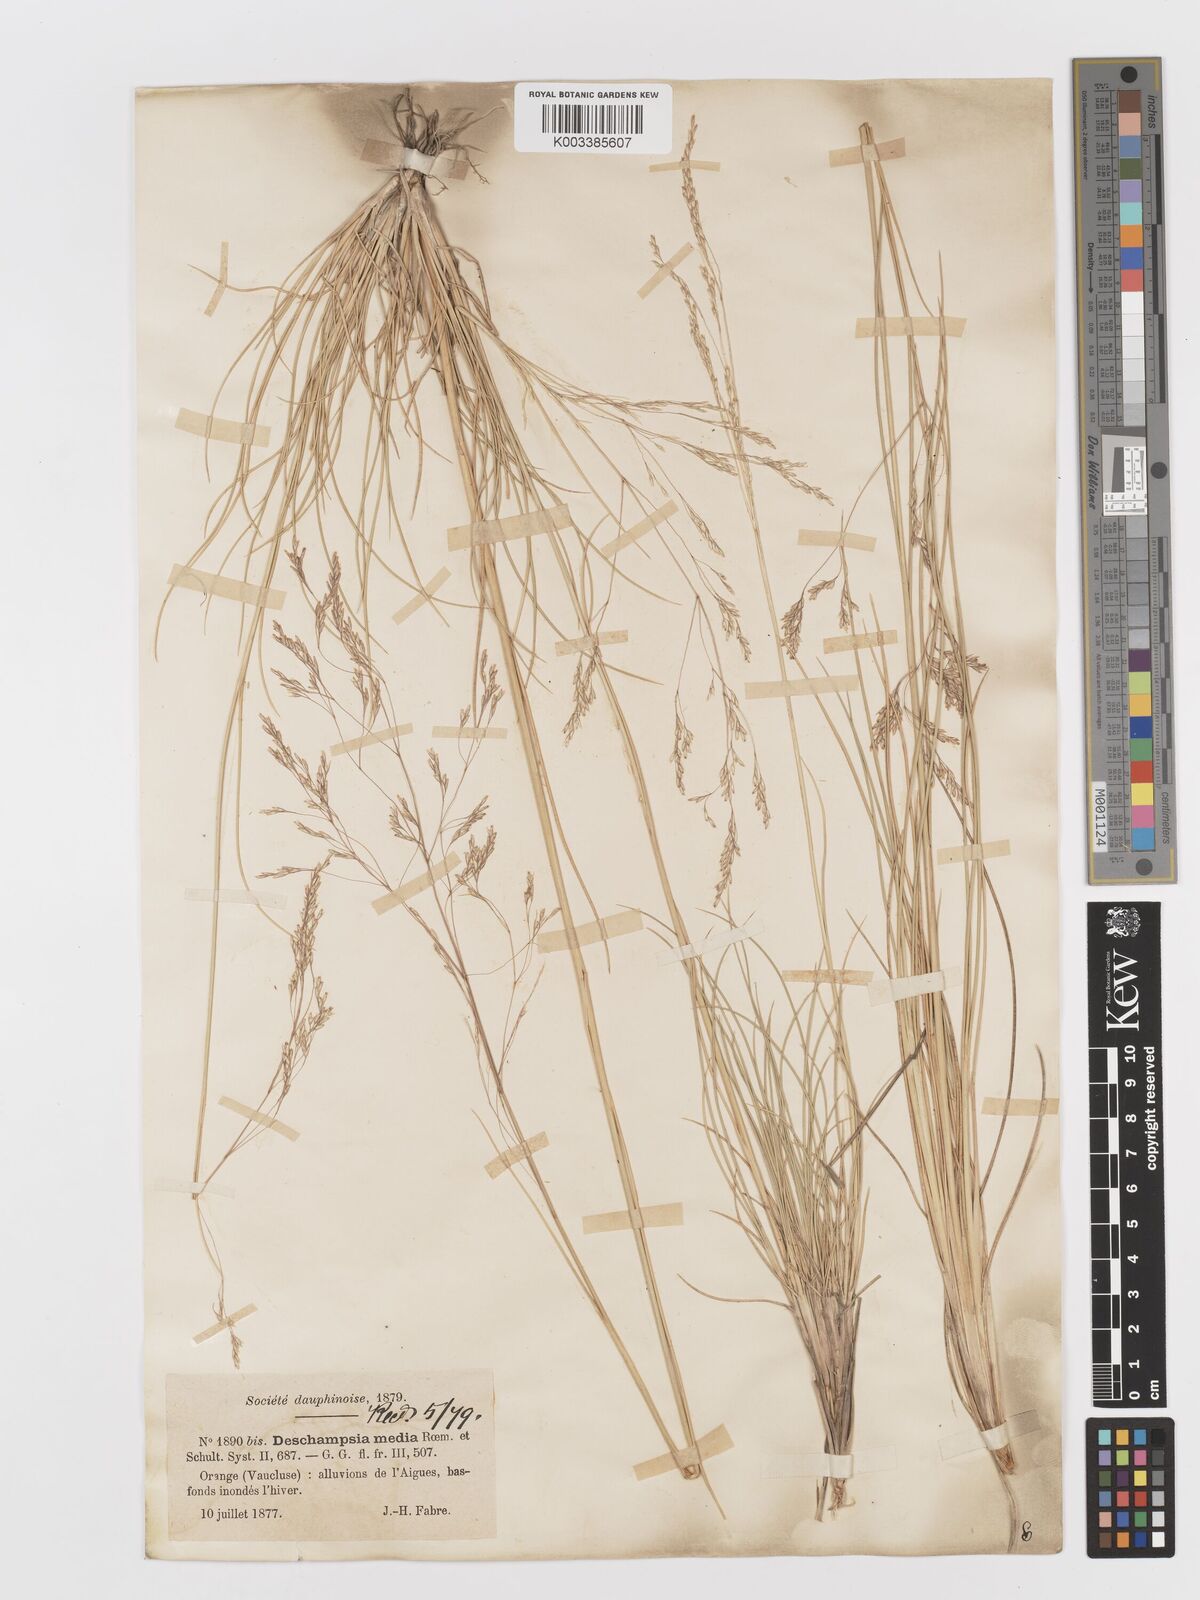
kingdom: Plantae
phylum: Tracheophyta
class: Liliopsida
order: Poales
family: Poaceae
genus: Deschampsia
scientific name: Deschampsia media
